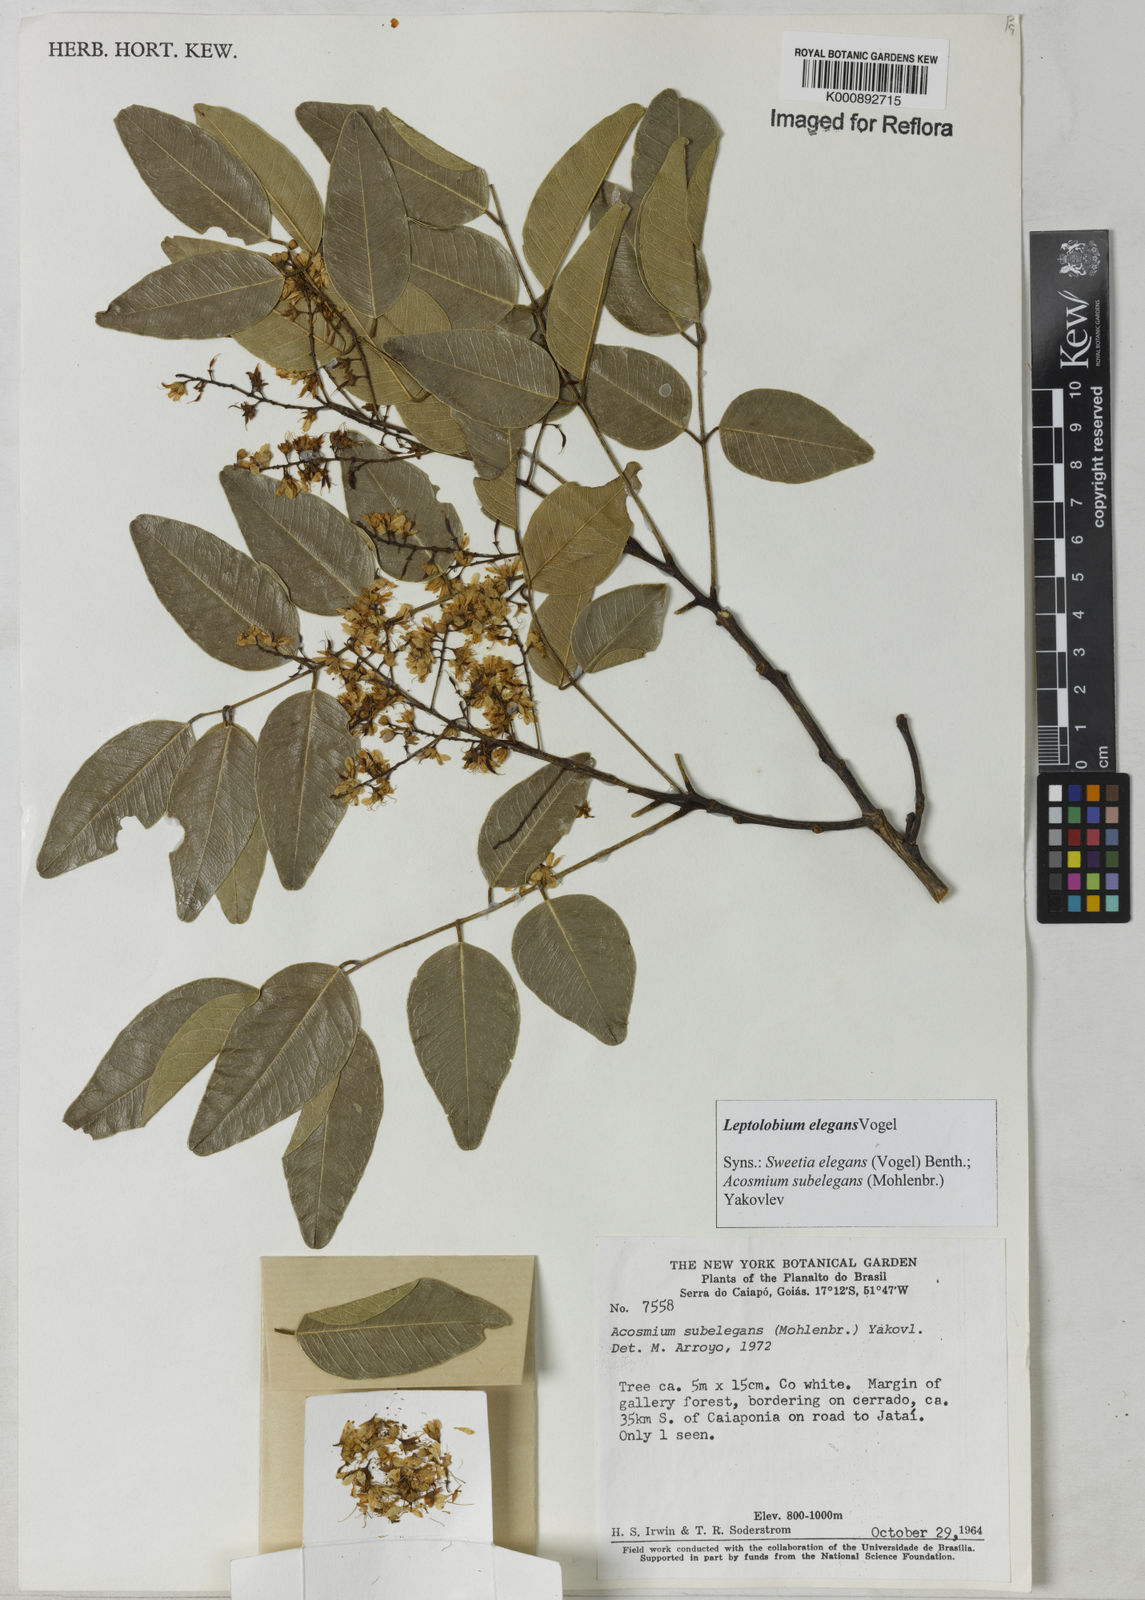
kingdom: Plantae
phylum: Tracheophyta
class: Magnoliopsida
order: Fabales
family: Fabaceae
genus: Leptolobium
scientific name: Leptolobium elegans
